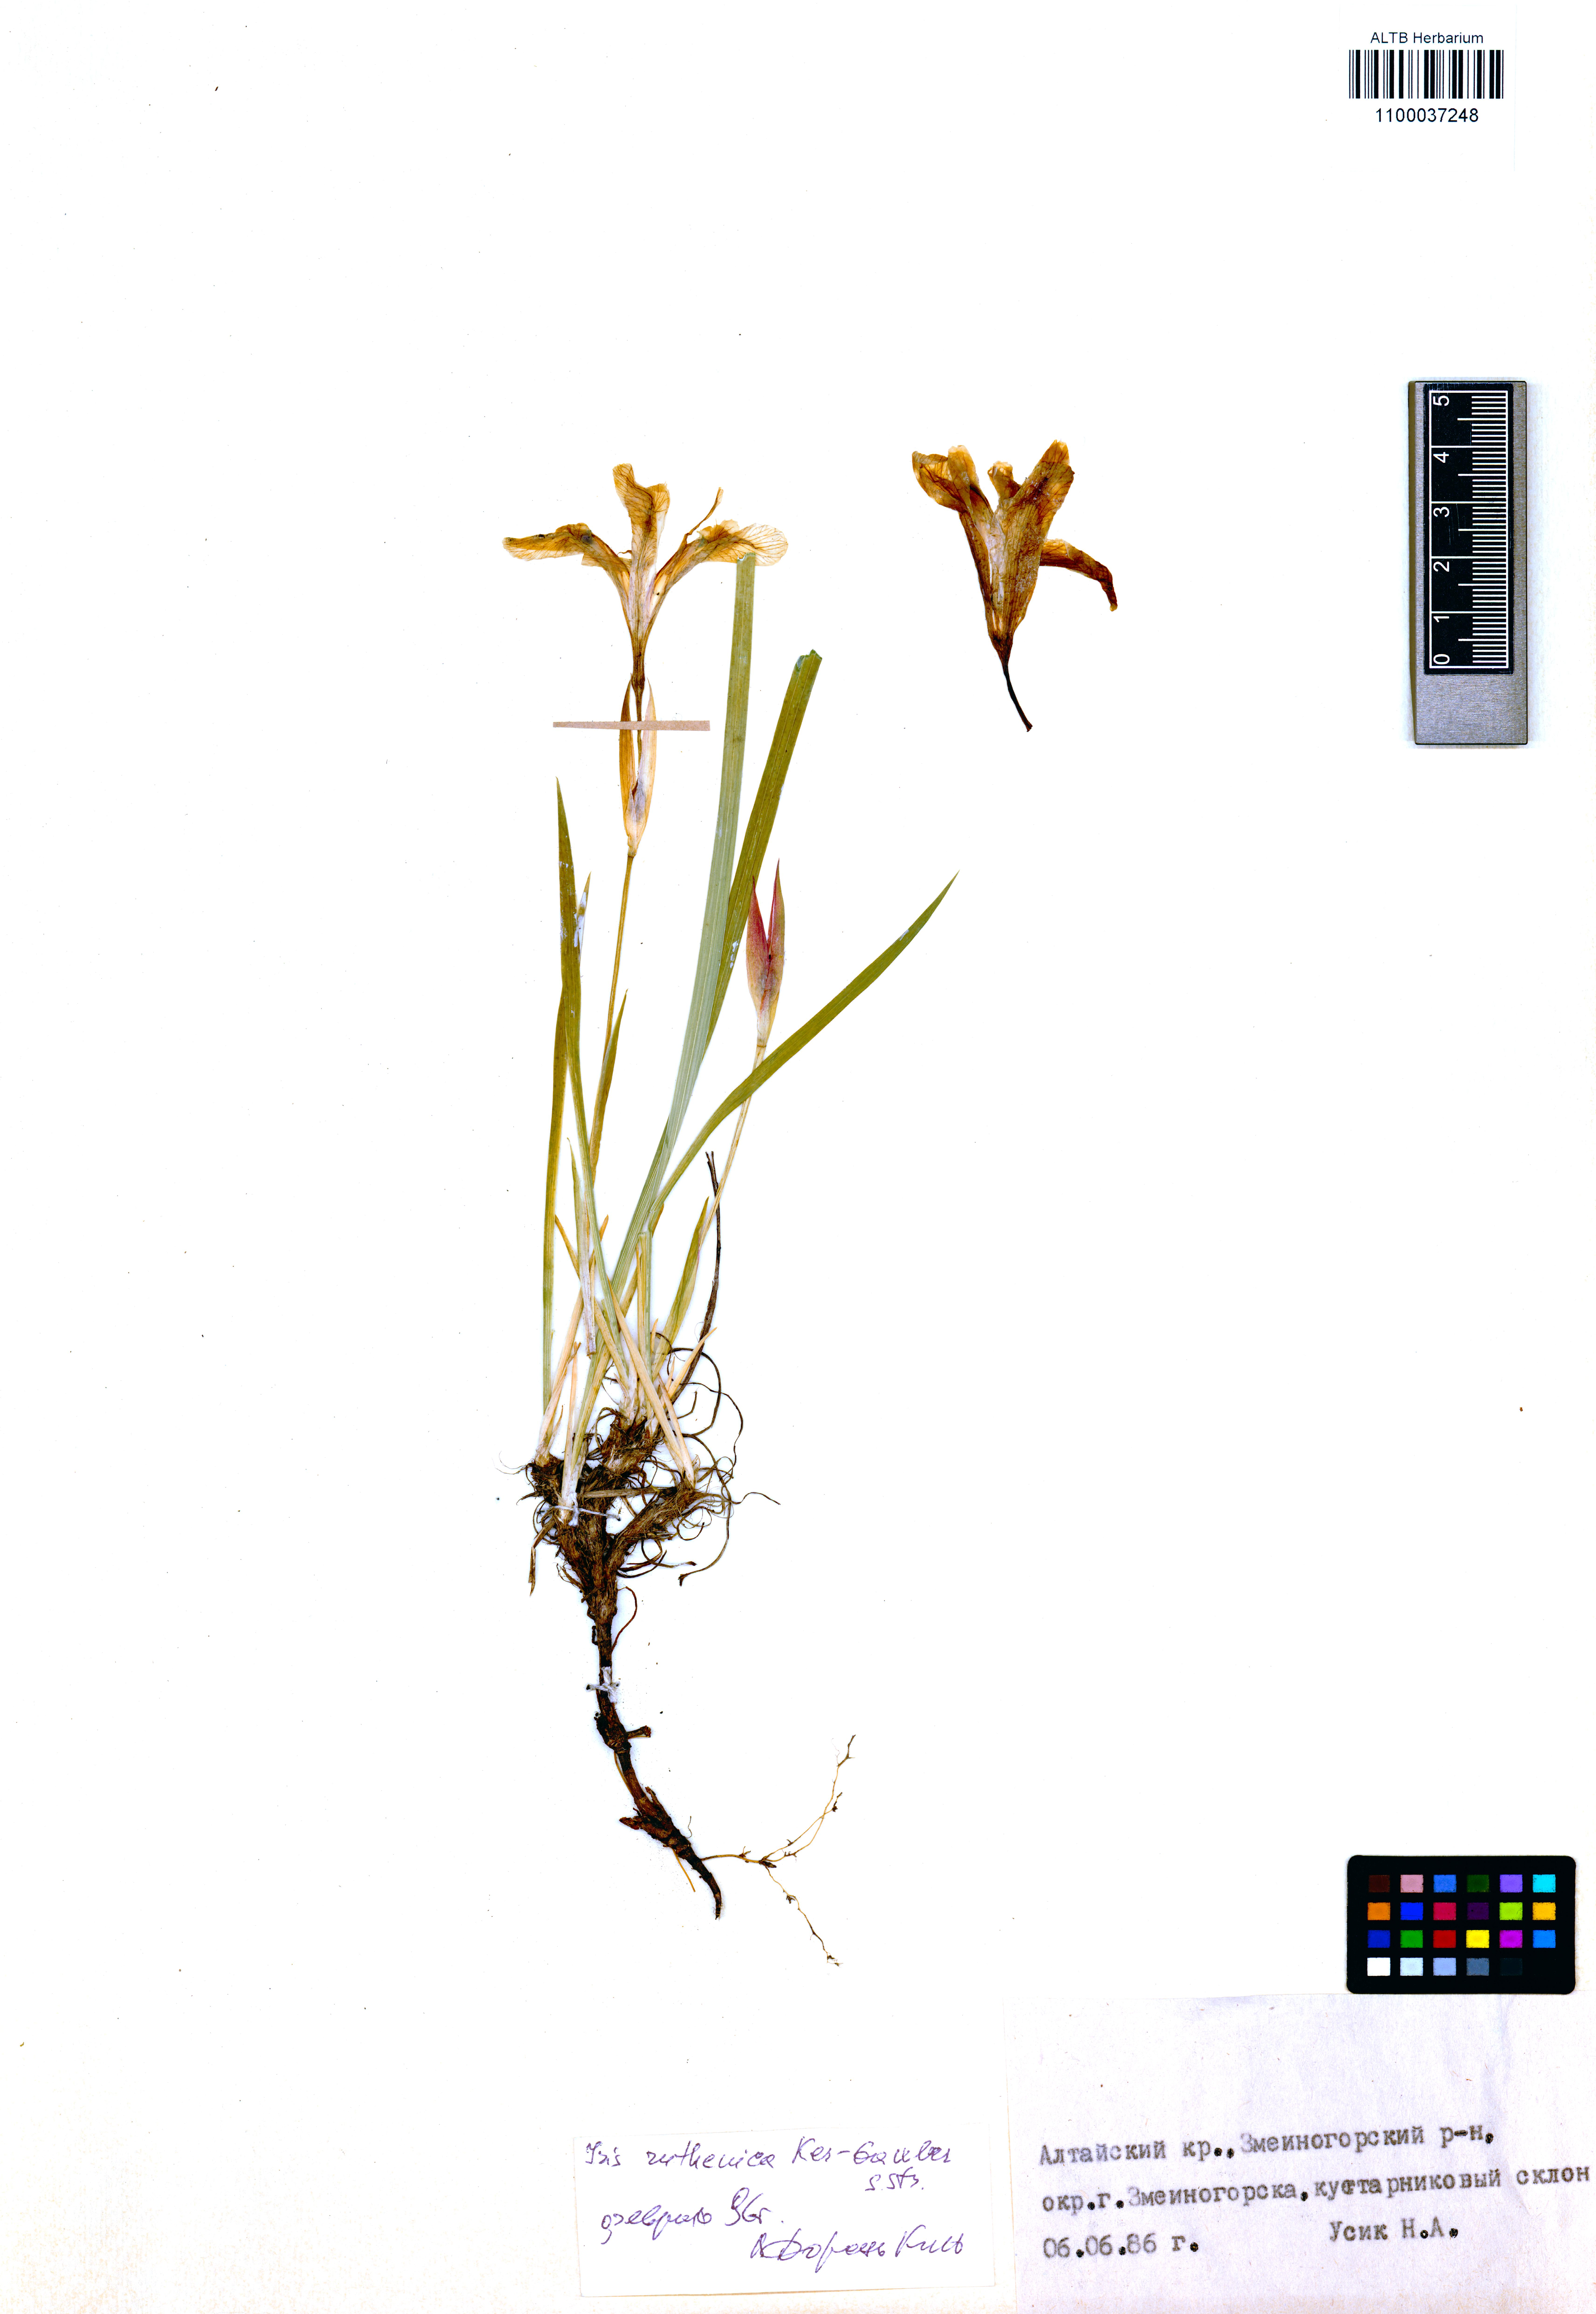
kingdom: Plantae
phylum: Tracheophyta
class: Liliopsida
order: Asparagales
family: Iridaceae
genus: Iris
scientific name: Iris ruthenica
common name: Purple-bract iris
